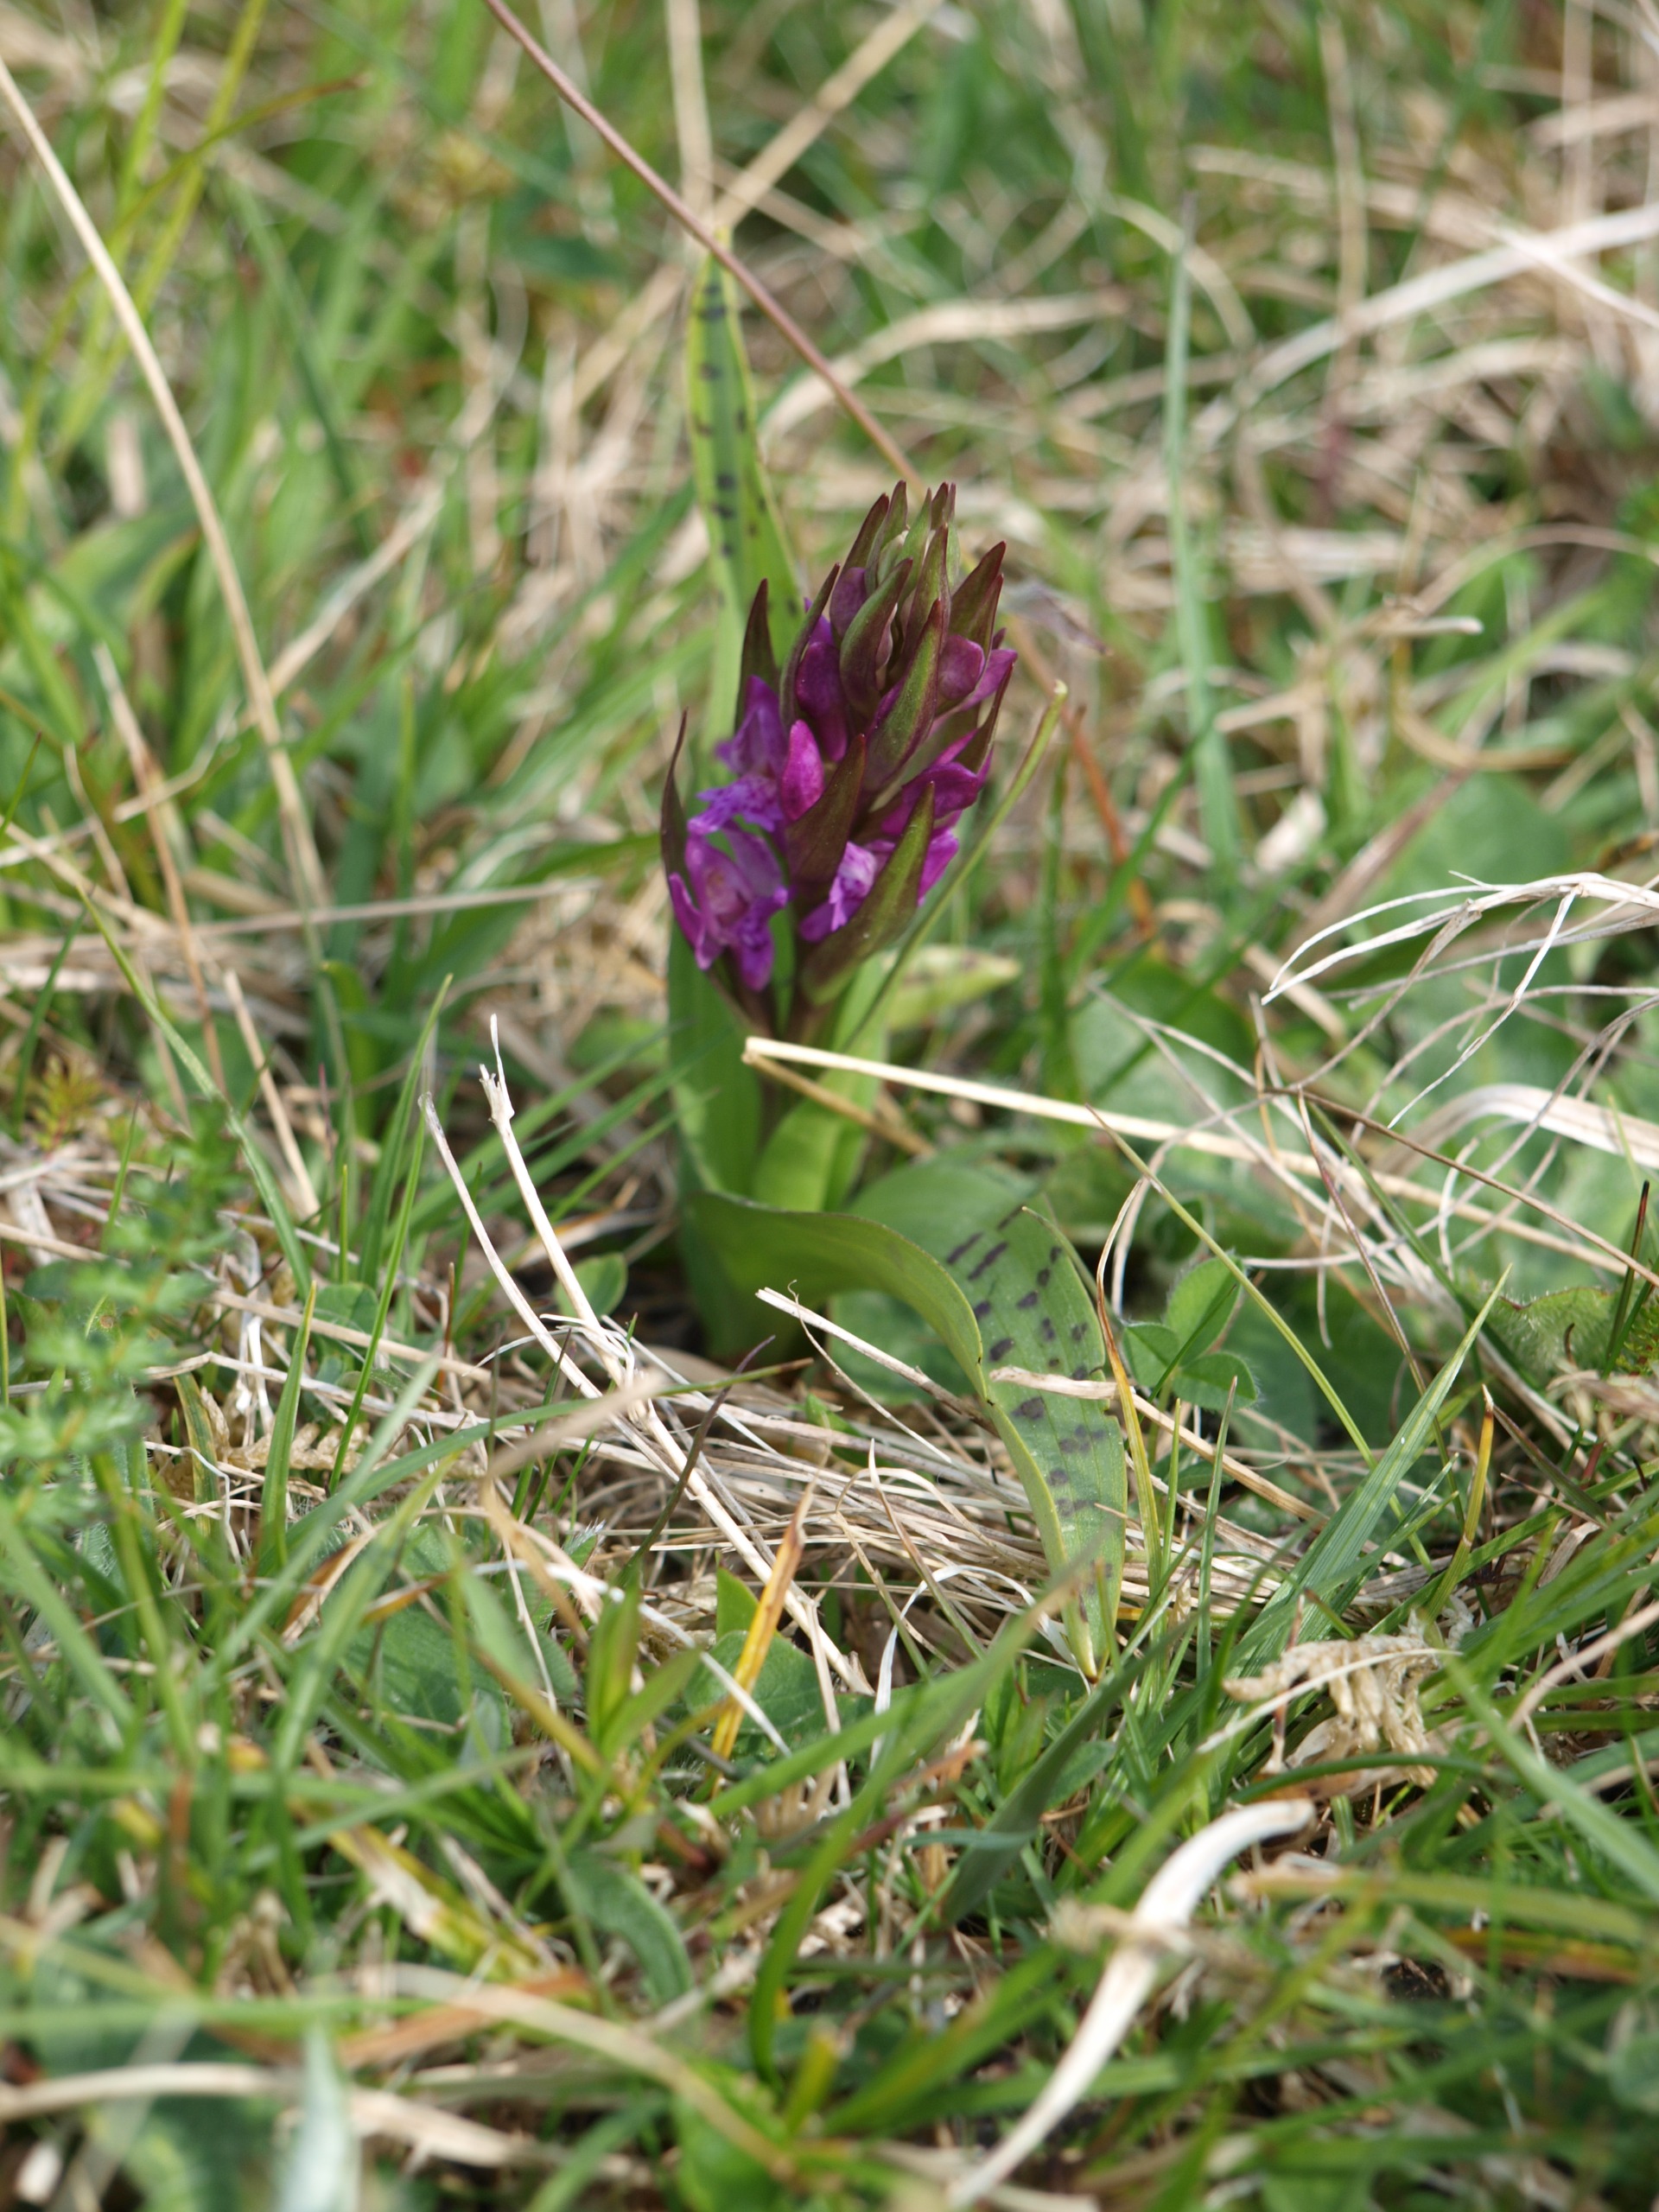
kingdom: Plantae
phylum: Tracheophyta
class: Liliopsida
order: Asparagales
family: Orchidaceae
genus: Dactylorhiza
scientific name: Dactylorhiza majalis
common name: Maj-gøgeurt
